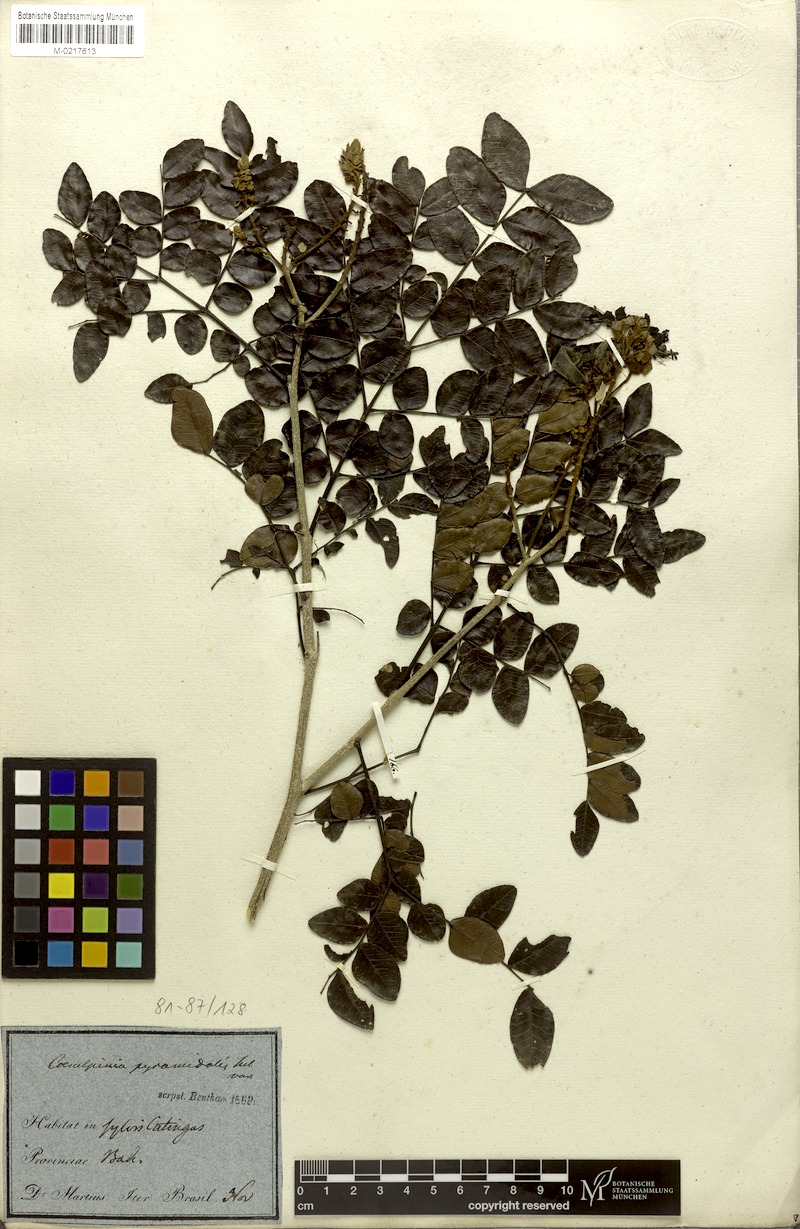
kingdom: Plantae
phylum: Tracheophyta
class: Magnoliopsida
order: Fabales
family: Fabaceae
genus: Cenostigma
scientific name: Cenostigma diversifolium
